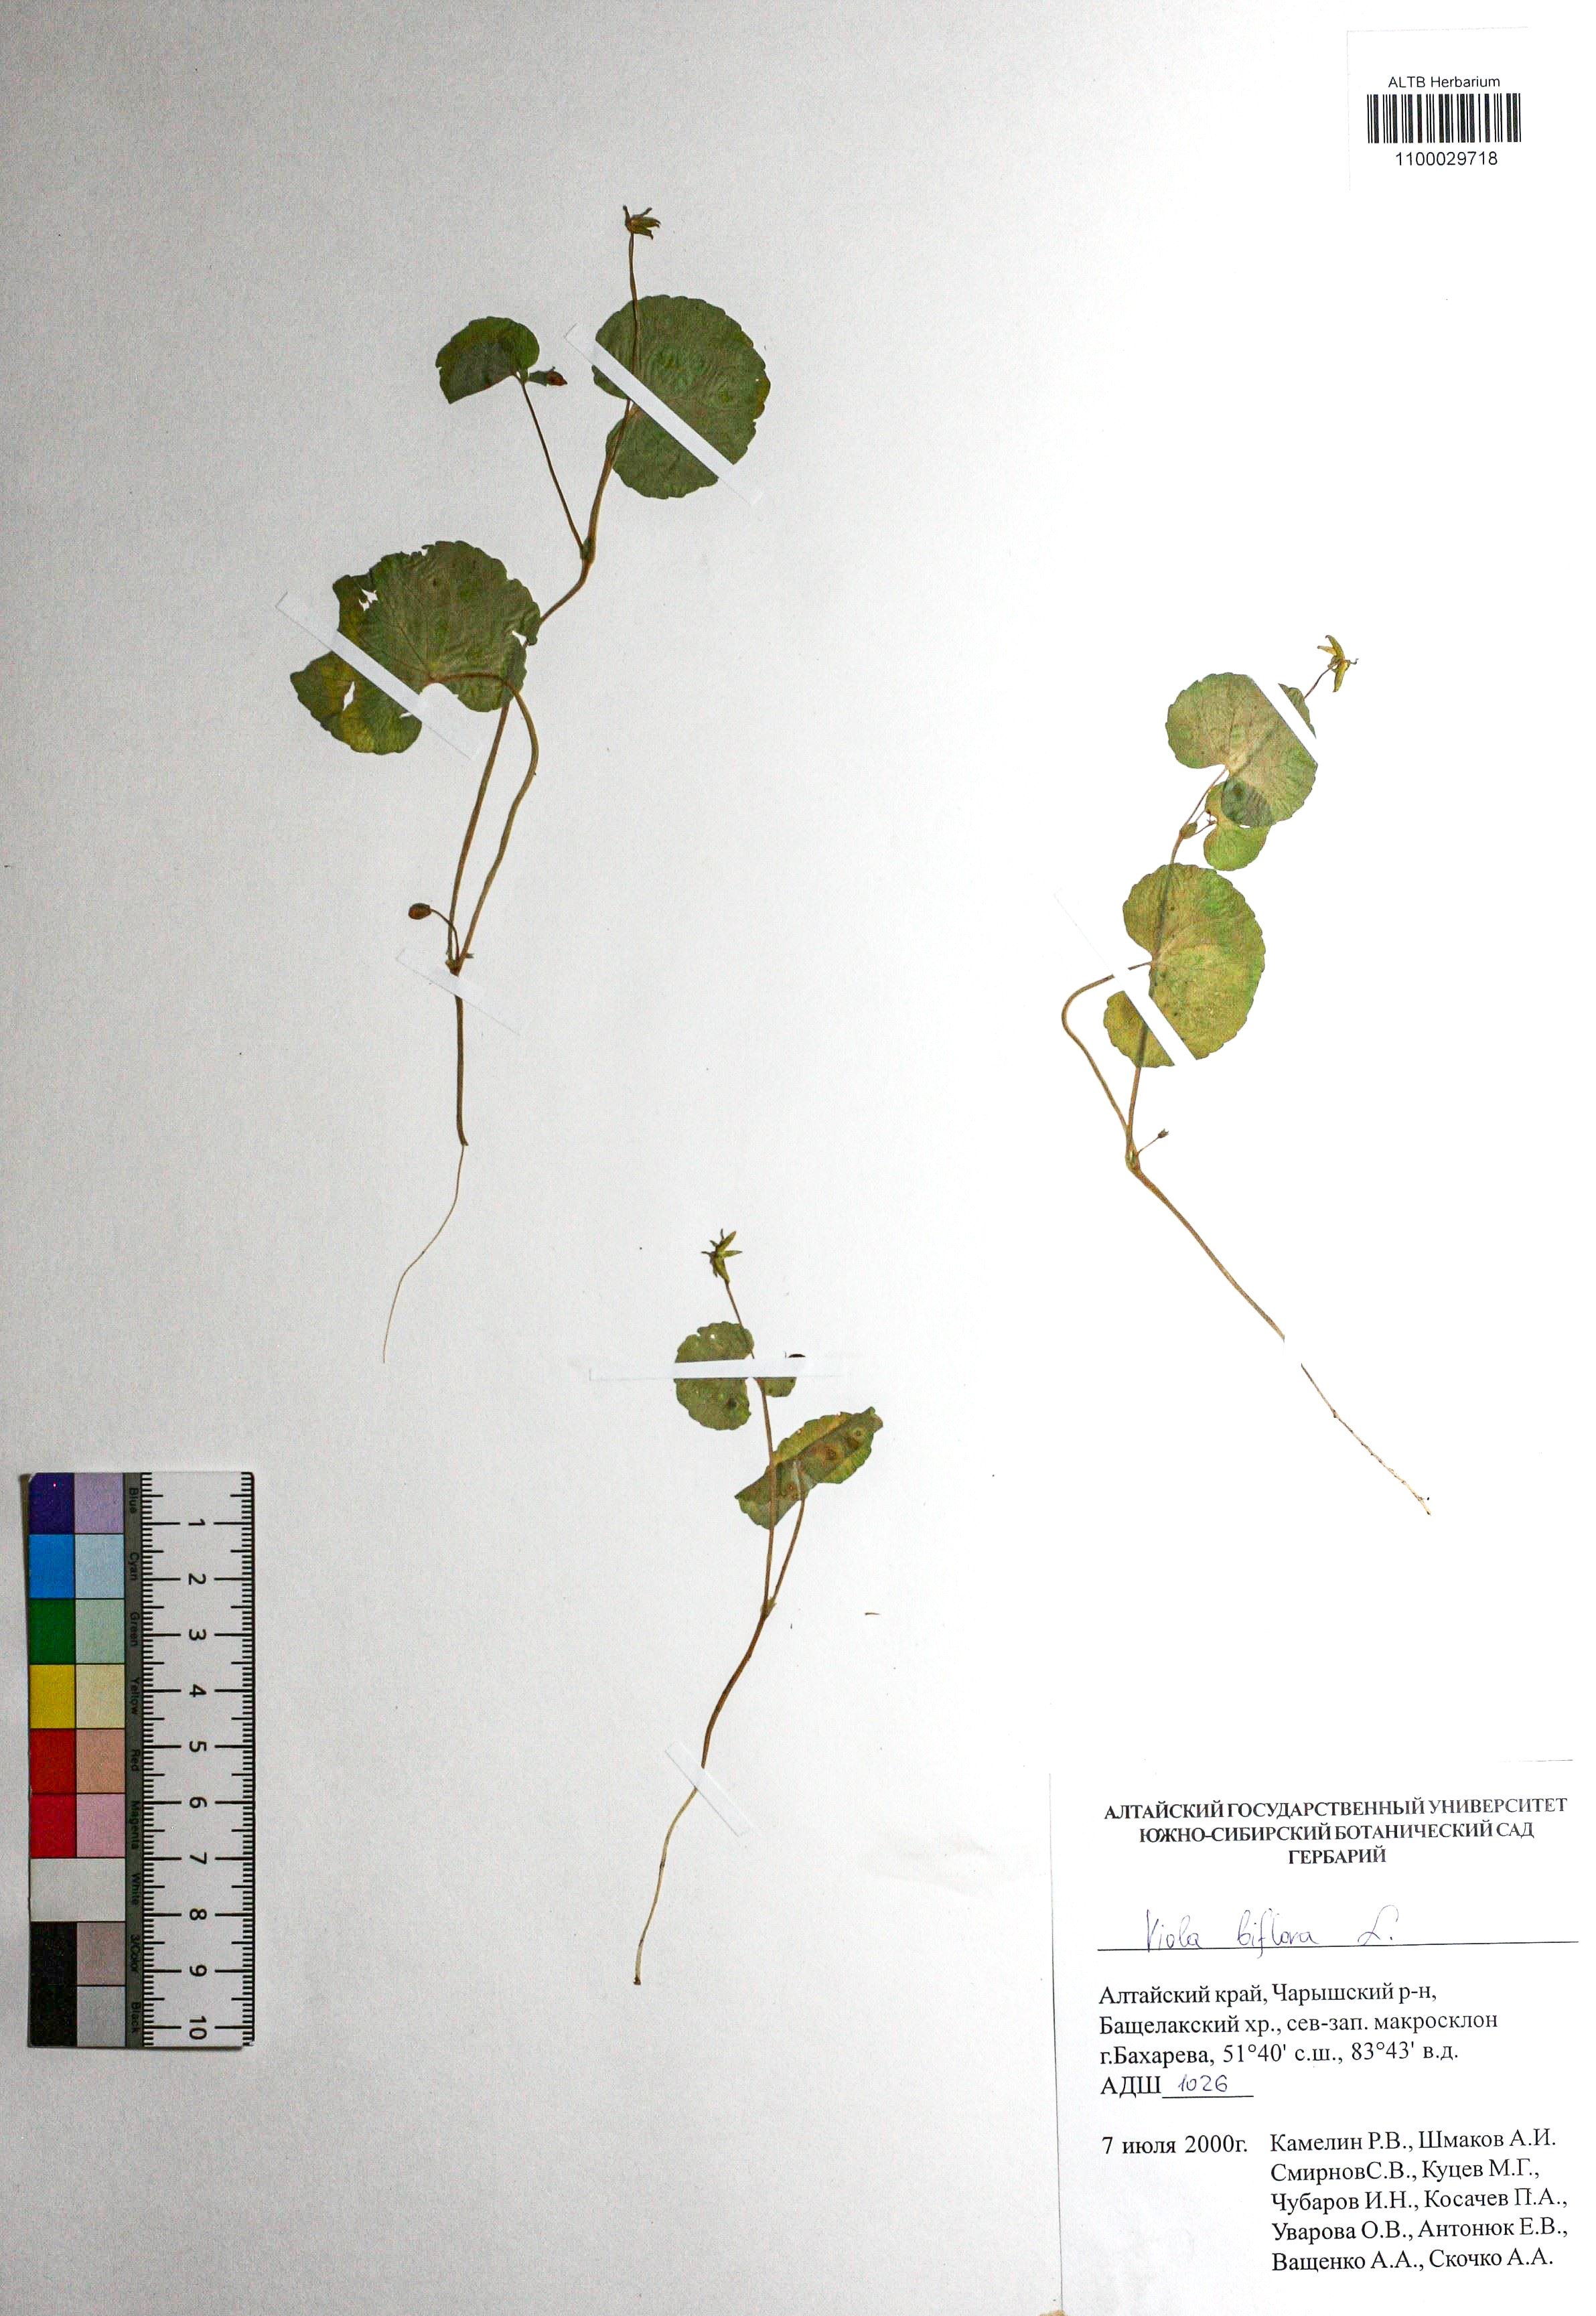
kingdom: Plantae
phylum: Tracheophyta
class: Magnoliopsida
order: Malpighiales
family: Violaceae
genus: Viola
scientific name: Viola biflora
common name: Alpine yellow violet
